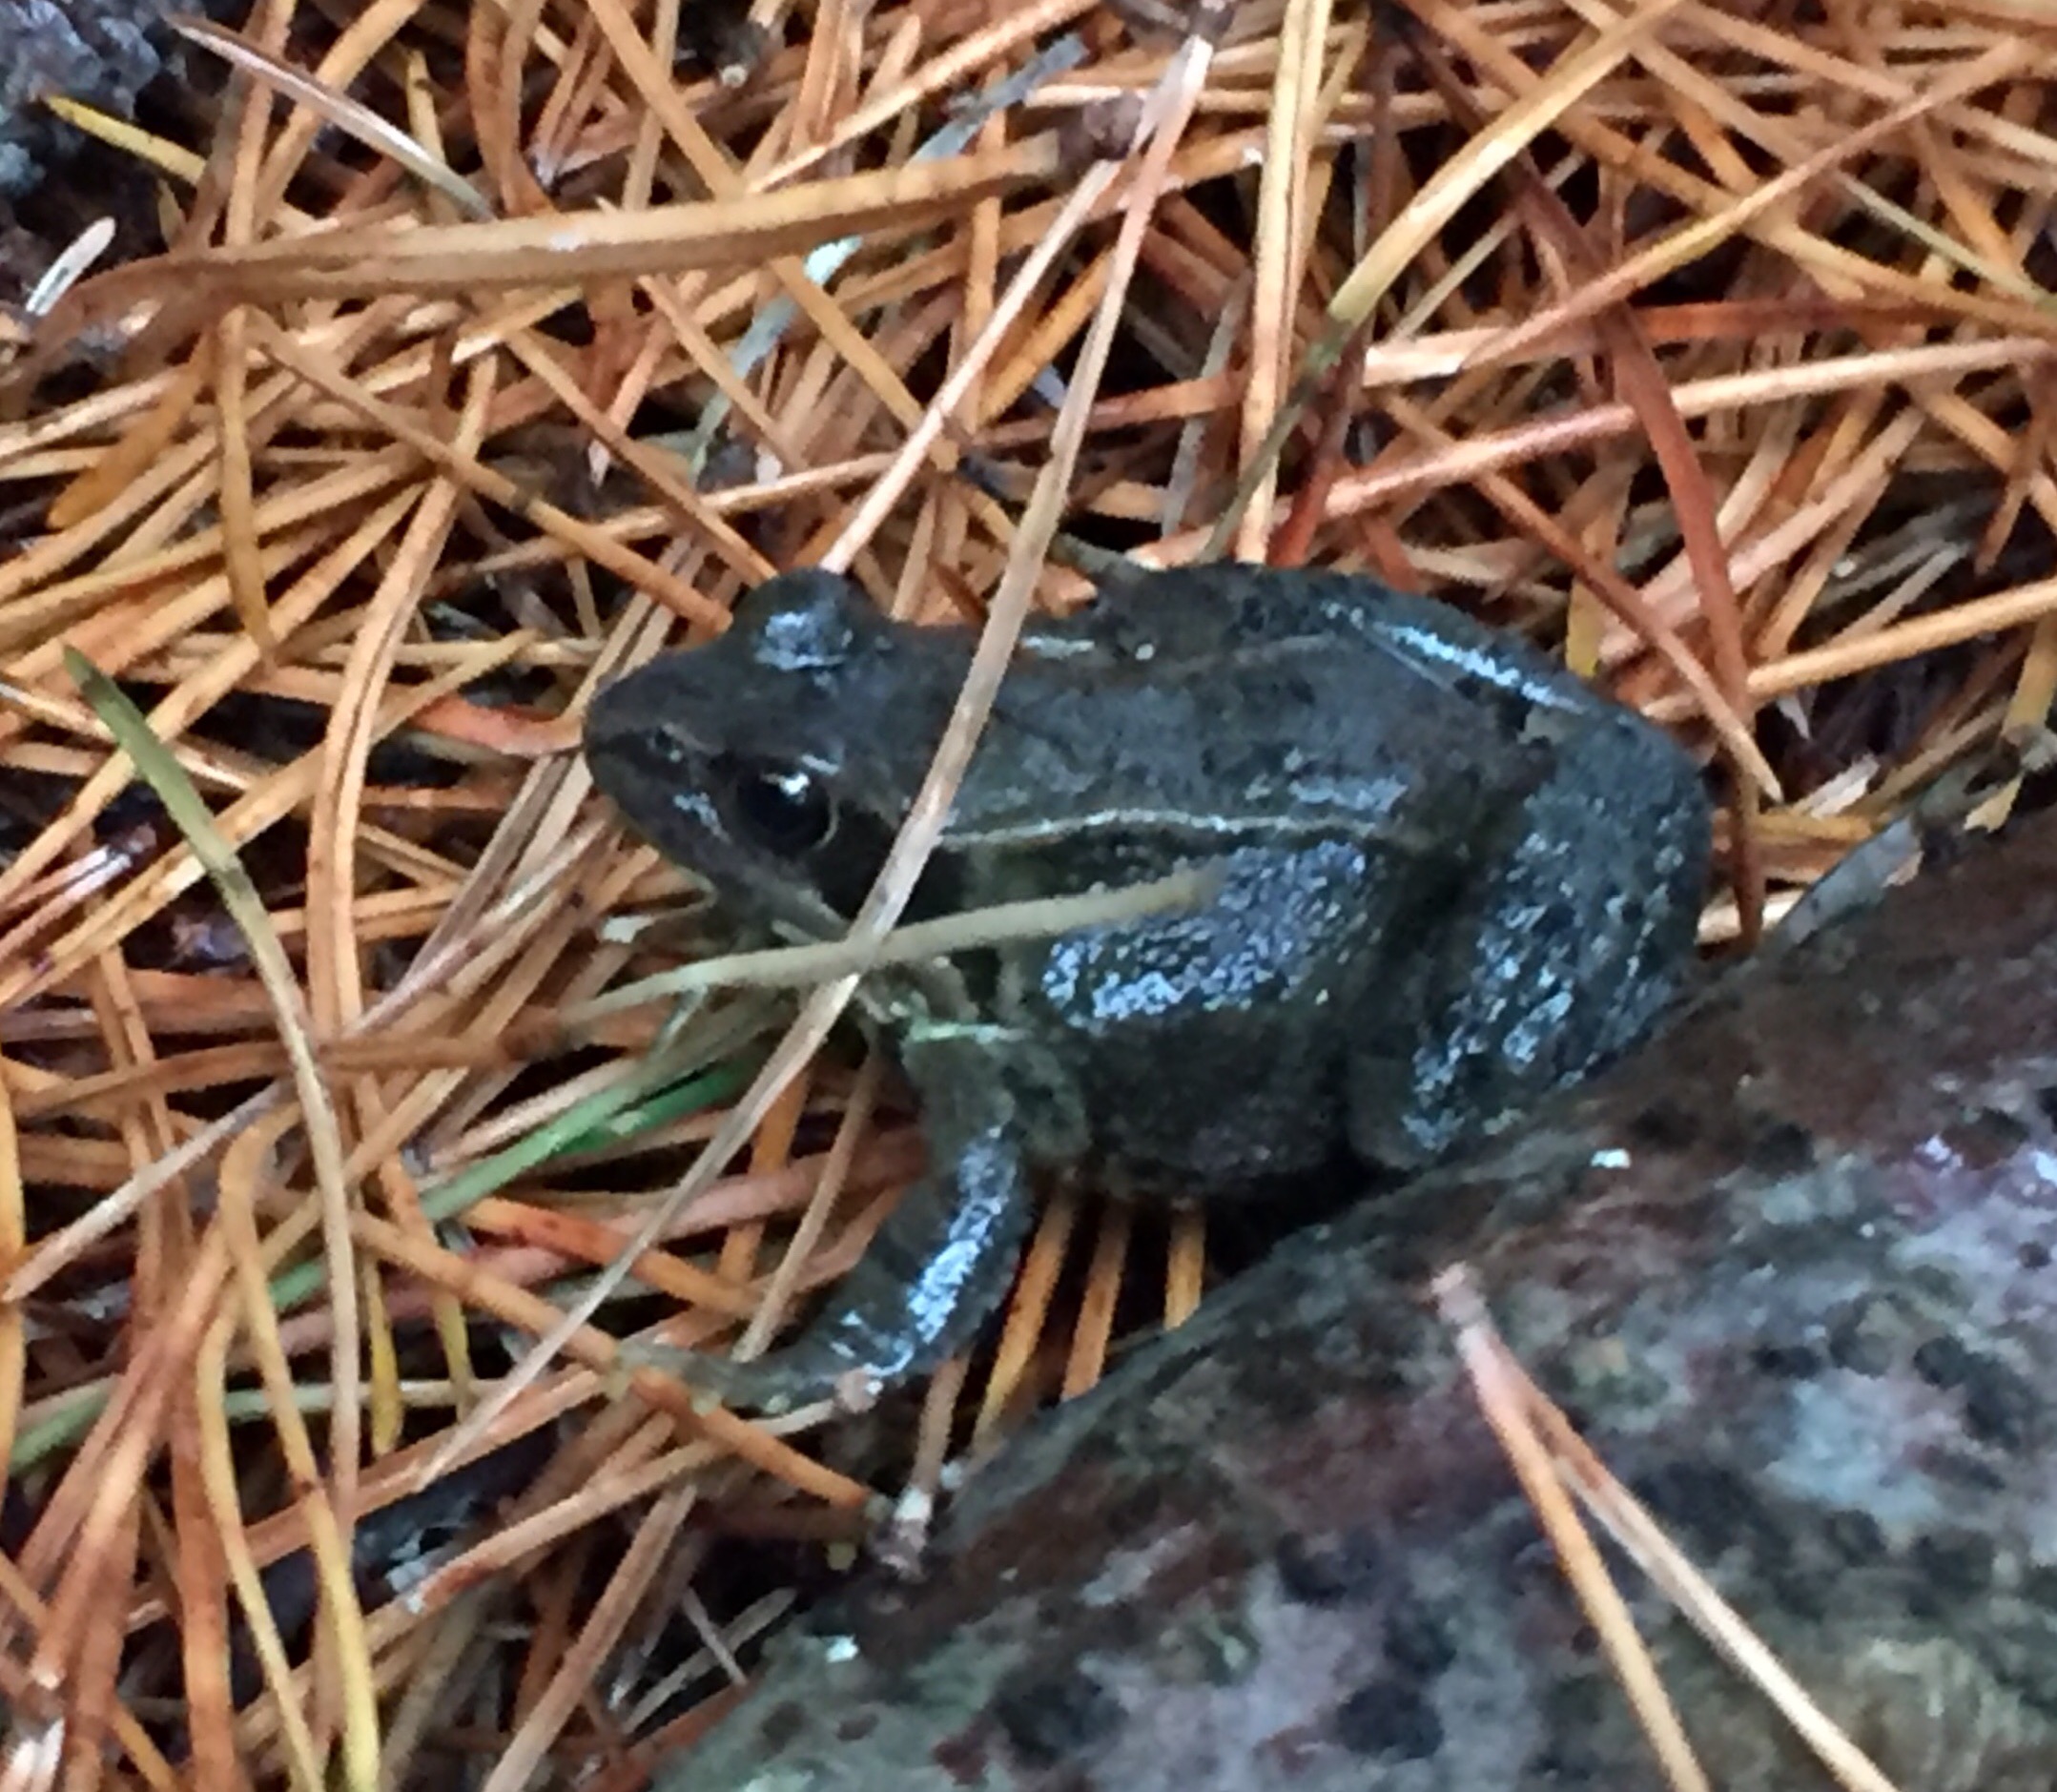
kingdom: Animalia
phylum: Chordata
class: Amphibia
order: Anura
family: Ranidae
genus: Rana
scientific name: Rana temporaria
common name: Butsnudet frø
